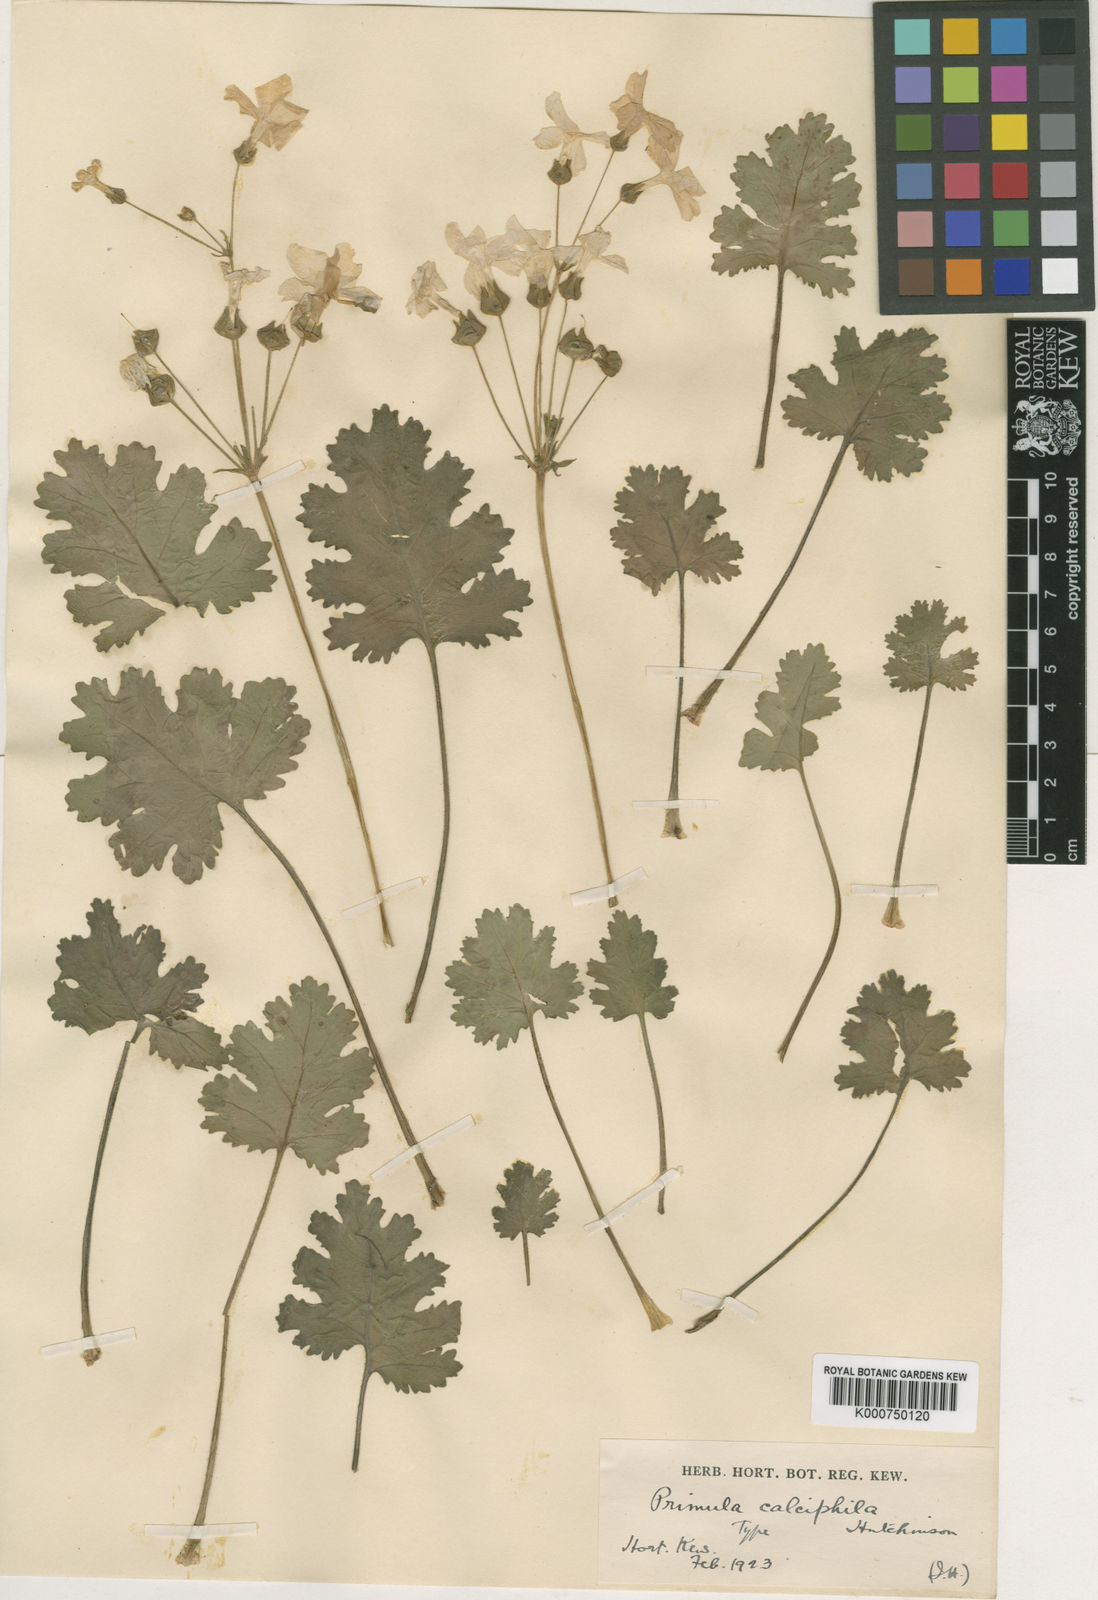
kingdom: Plantae
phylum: Tracheophyta
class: Magnoliopsida
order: Ericales
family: Primulaceae
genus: Primula
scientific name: Primula rupestris
